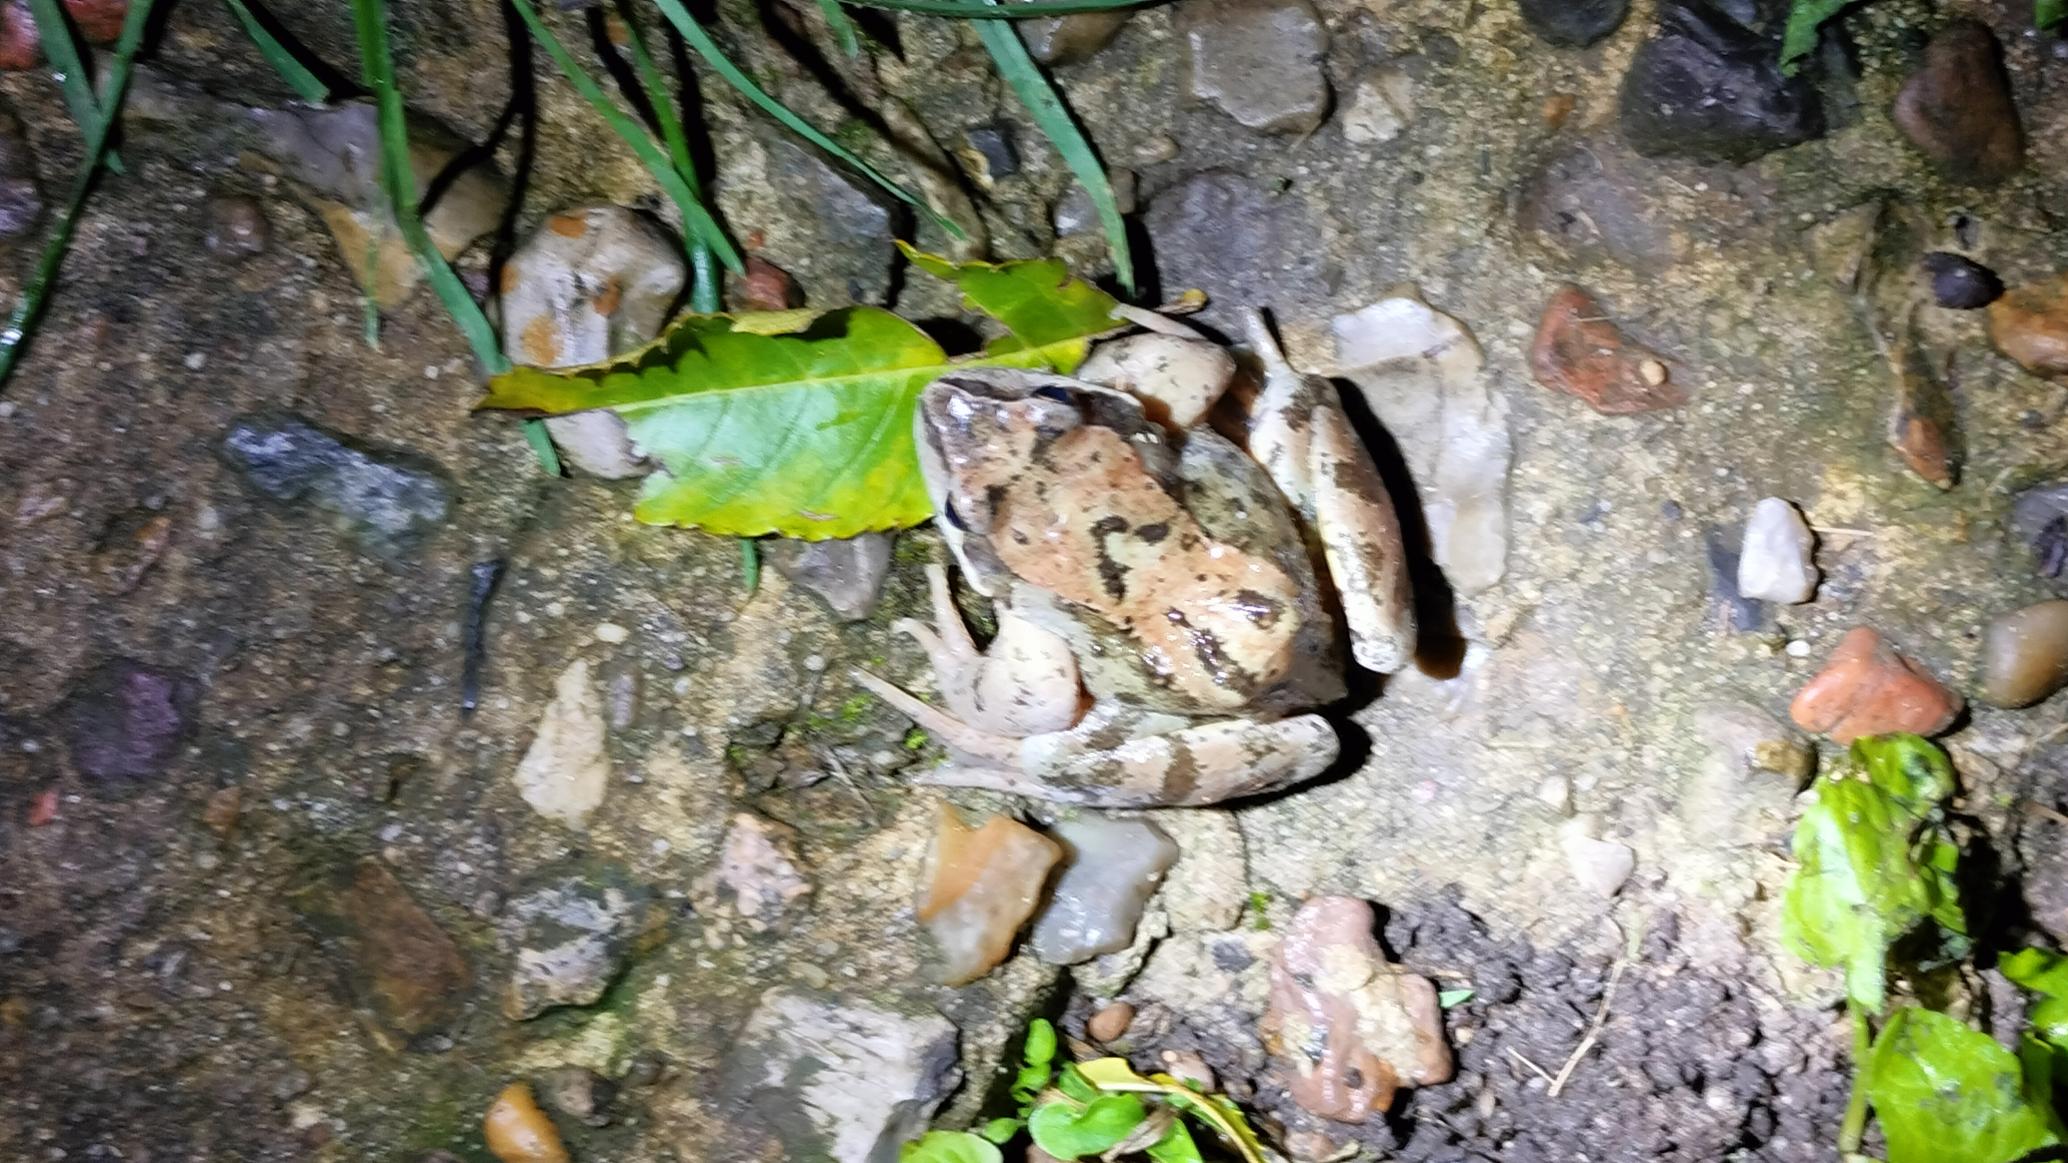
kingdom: Animalia
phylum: Chordata
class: Amphibia
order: Anura
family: Ranidae
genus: Rana
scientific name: Rana temporaria
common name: Butsnudet frø
